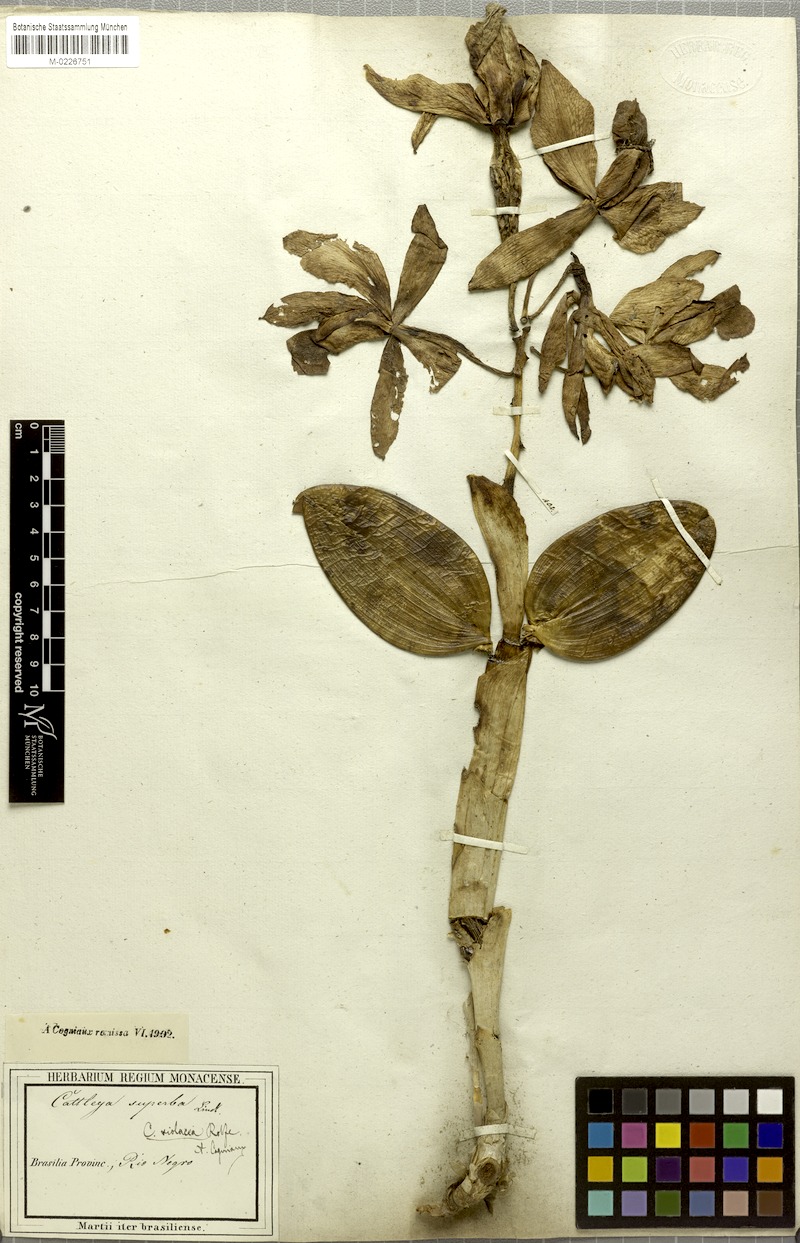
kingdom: Plantae
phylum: Tracheophyta
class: Liliopsida
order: Asparagales
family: Orchidaceae
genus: Cattleya
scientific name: Cattleya violacea
